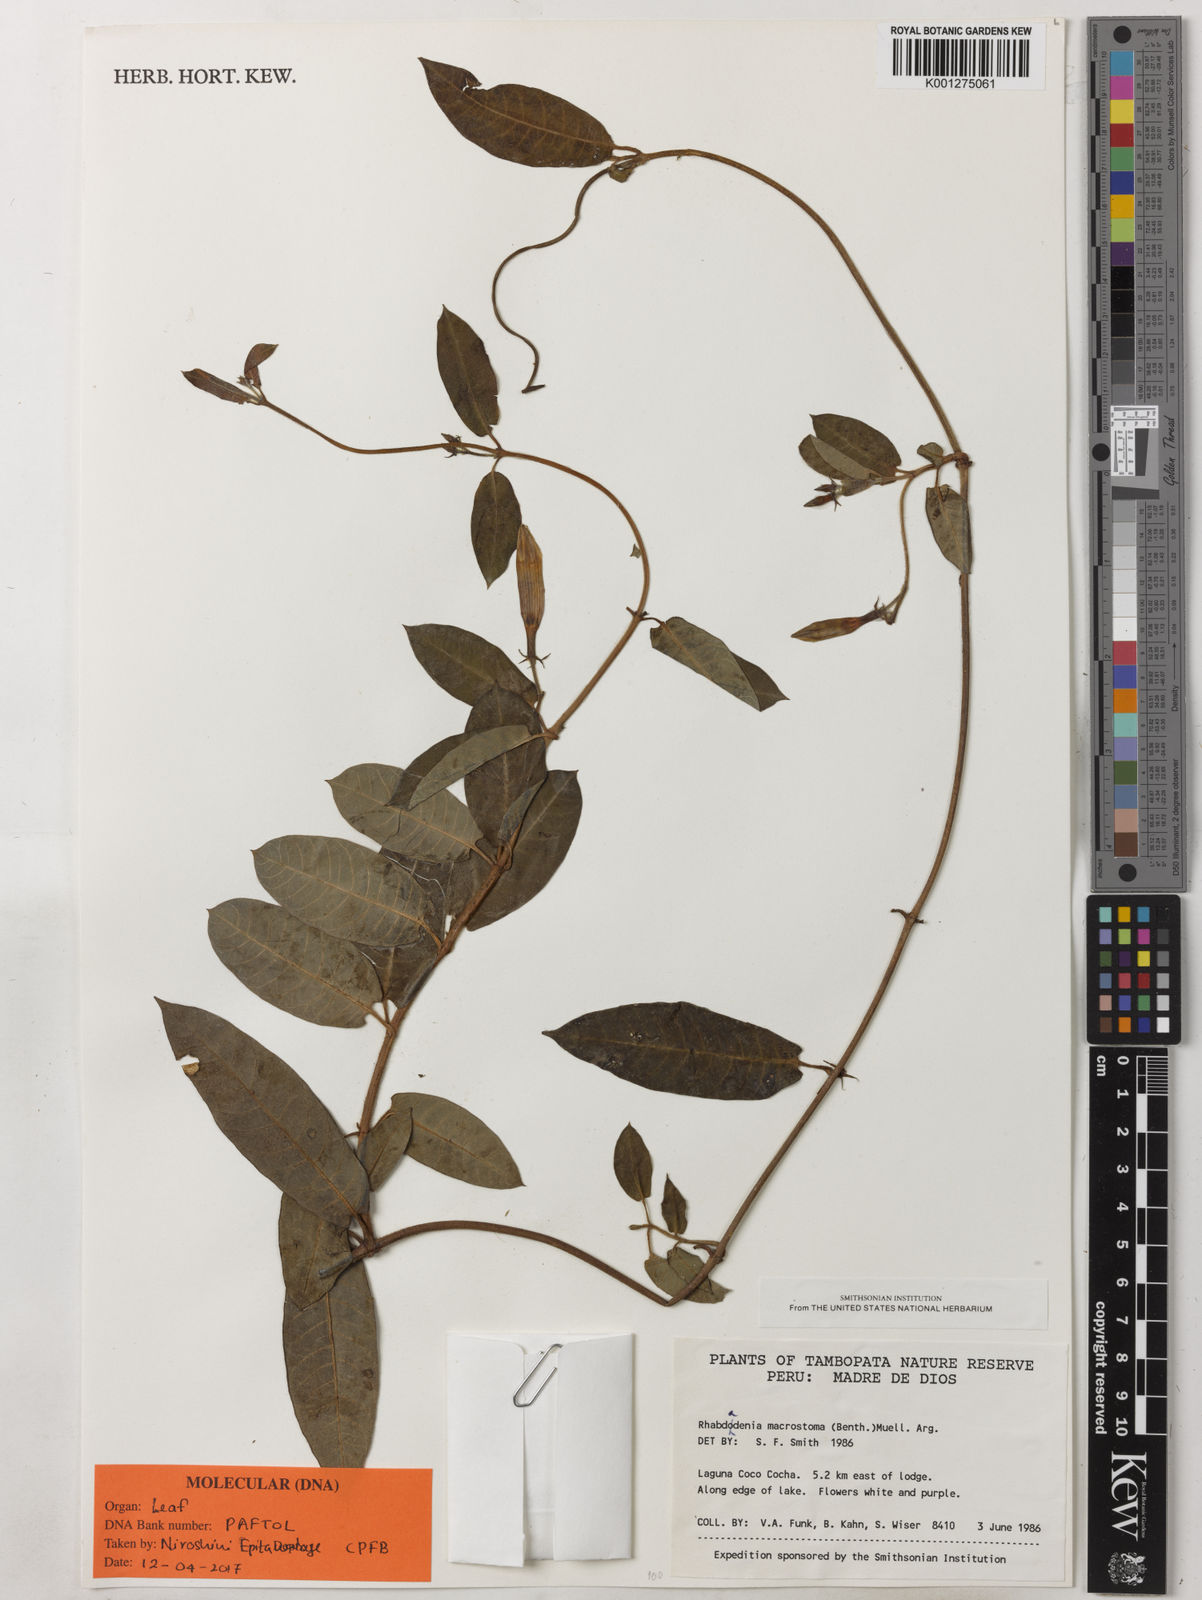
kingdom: Plantae
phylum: Tracheophyta
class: Magnoliopsida
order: Gentianales
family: Apocynaceae
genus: Rhabdadenia
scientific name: Rhabdadenia
